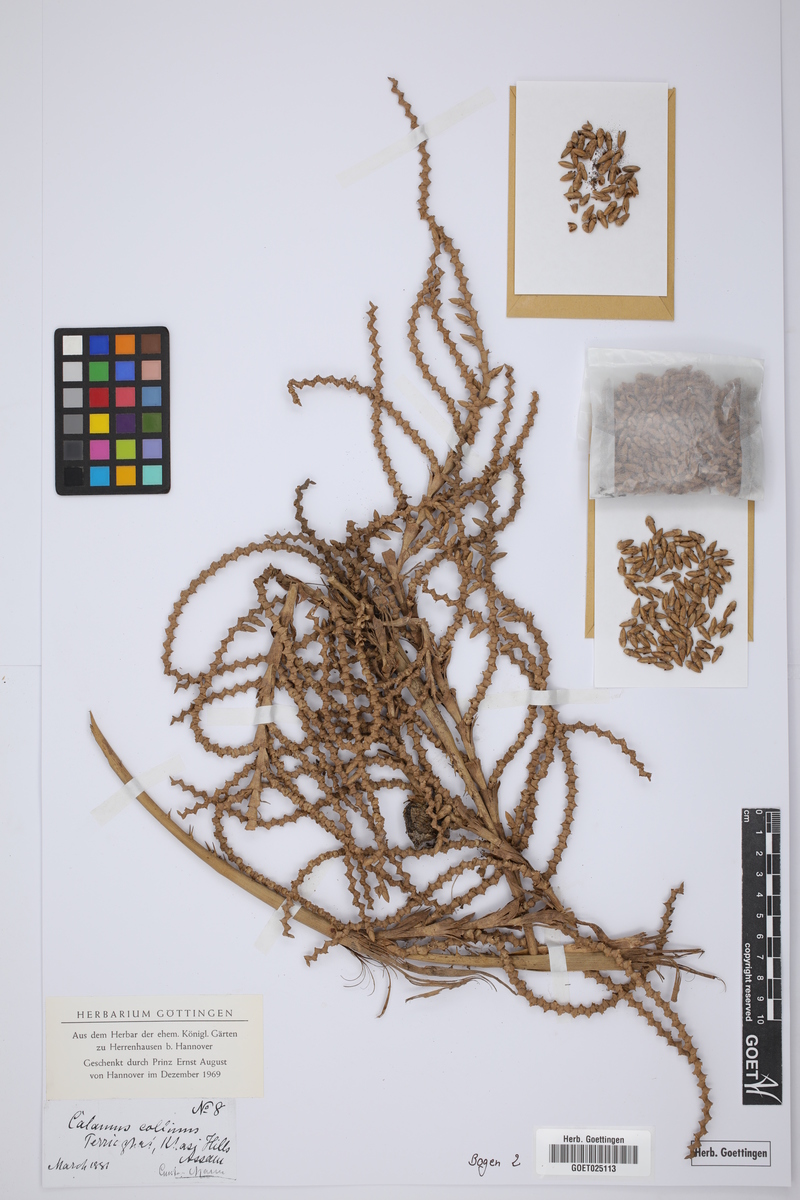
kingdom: Plantae
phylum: Tracheophyta
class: Liliopsida
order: Arecales
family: Arecaceae
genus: Calamus
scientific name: Calamus erectus
